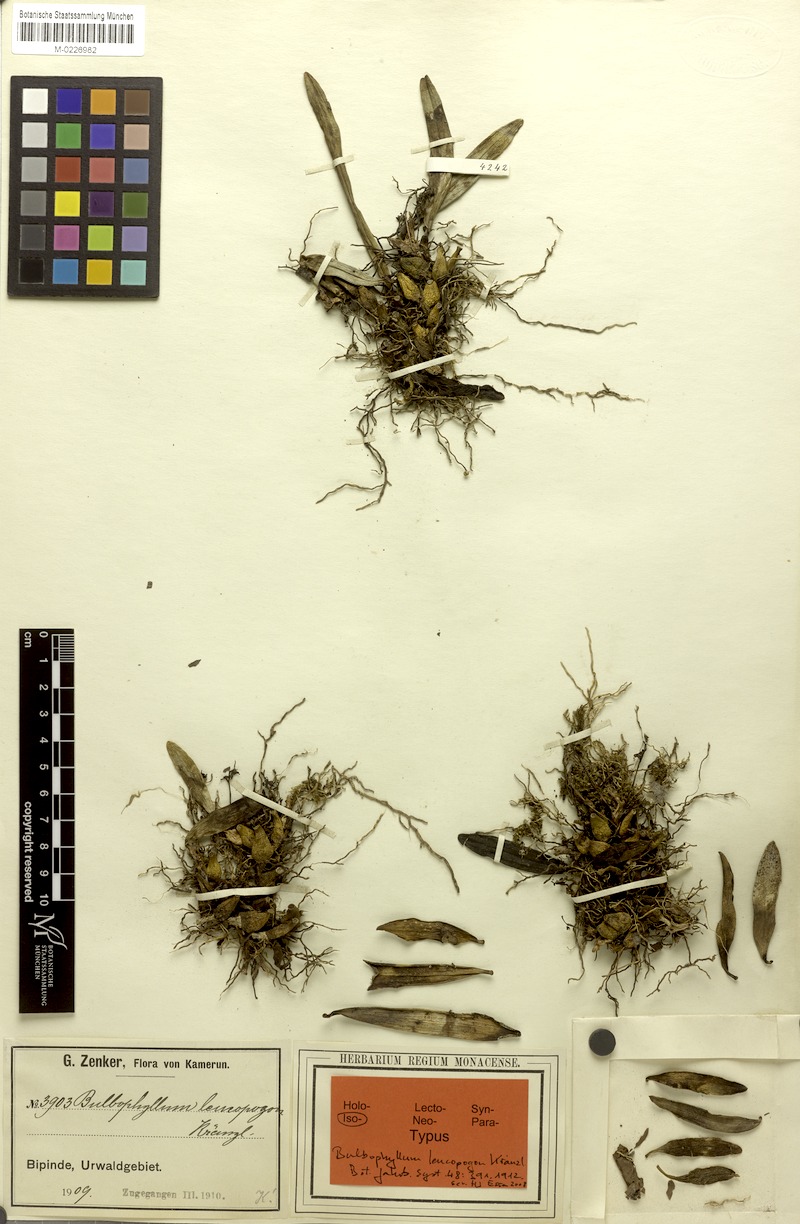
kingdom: Plantae
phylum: Tracheophyta
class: Liliopsida
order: Asparagales
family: Orchidaceae
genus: Bulbophyllum
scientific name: Bulbophyllum pumilum
